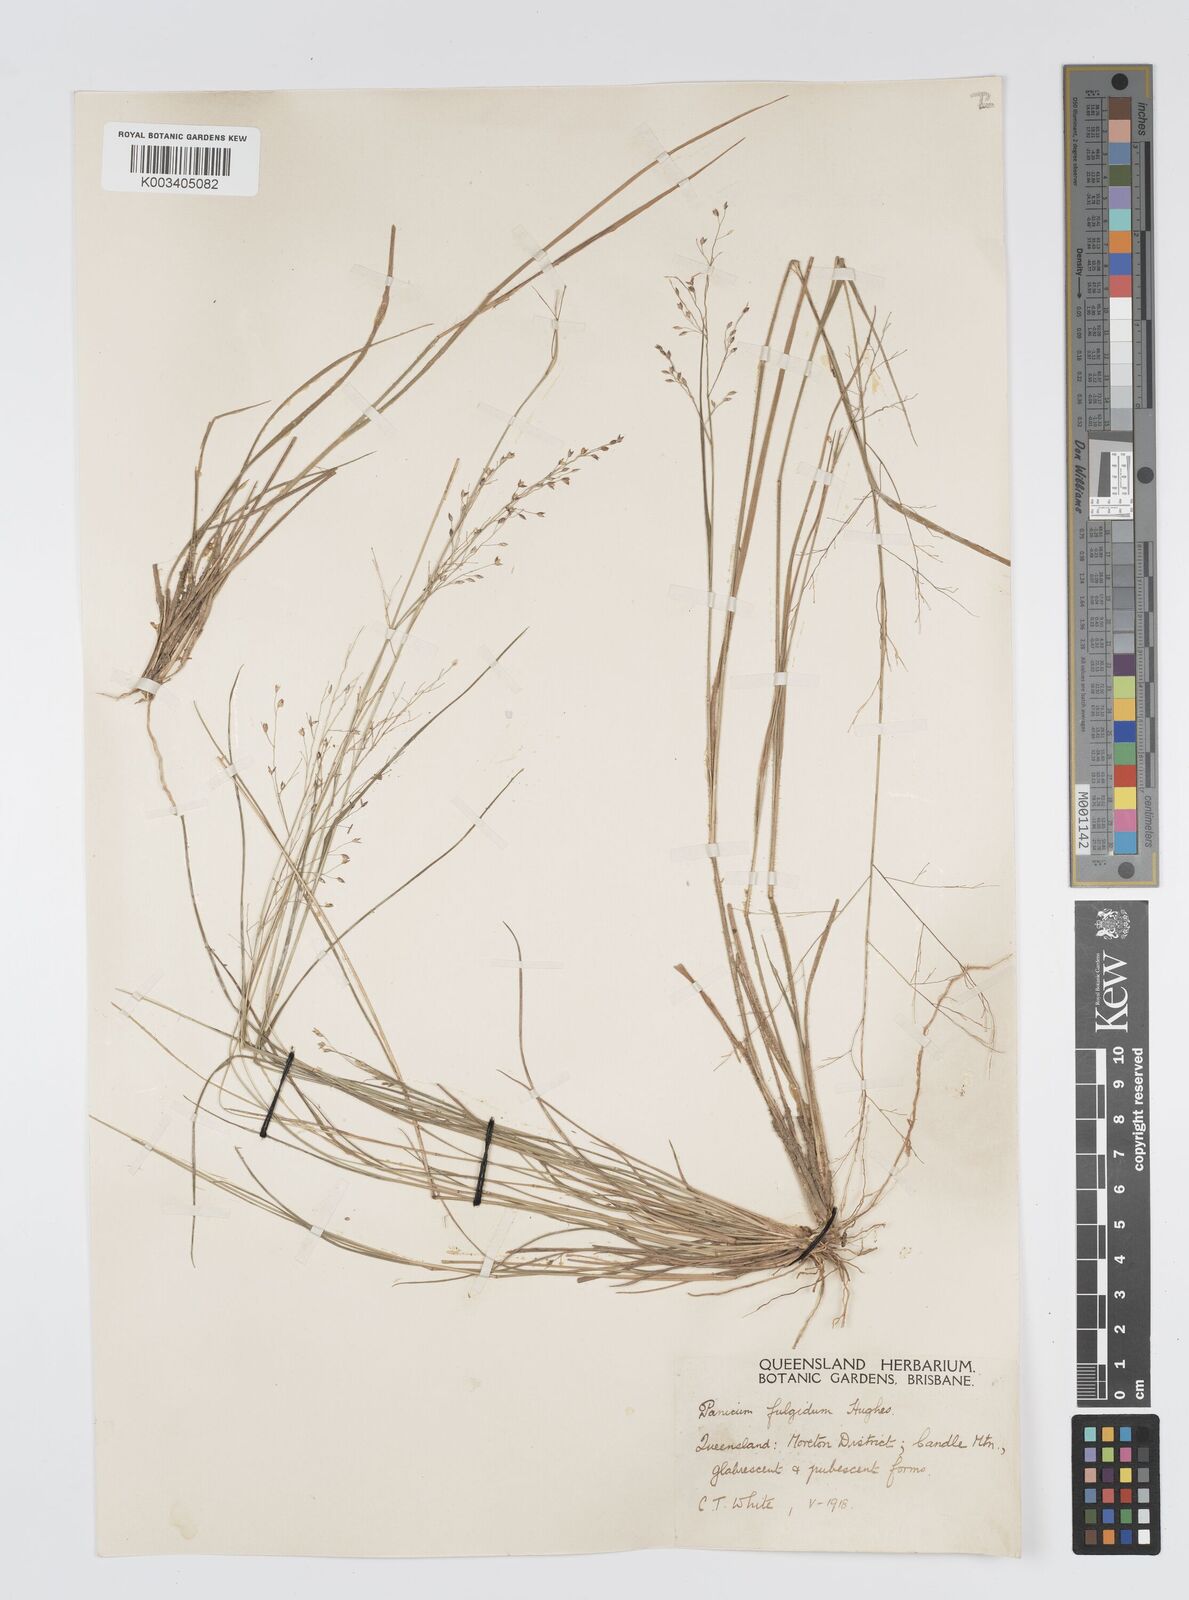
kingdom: Plantae
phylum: Tracheophyta
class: Liliopsida
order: Poales
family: Poaceae
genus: Panicum
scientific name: Panicum simile
